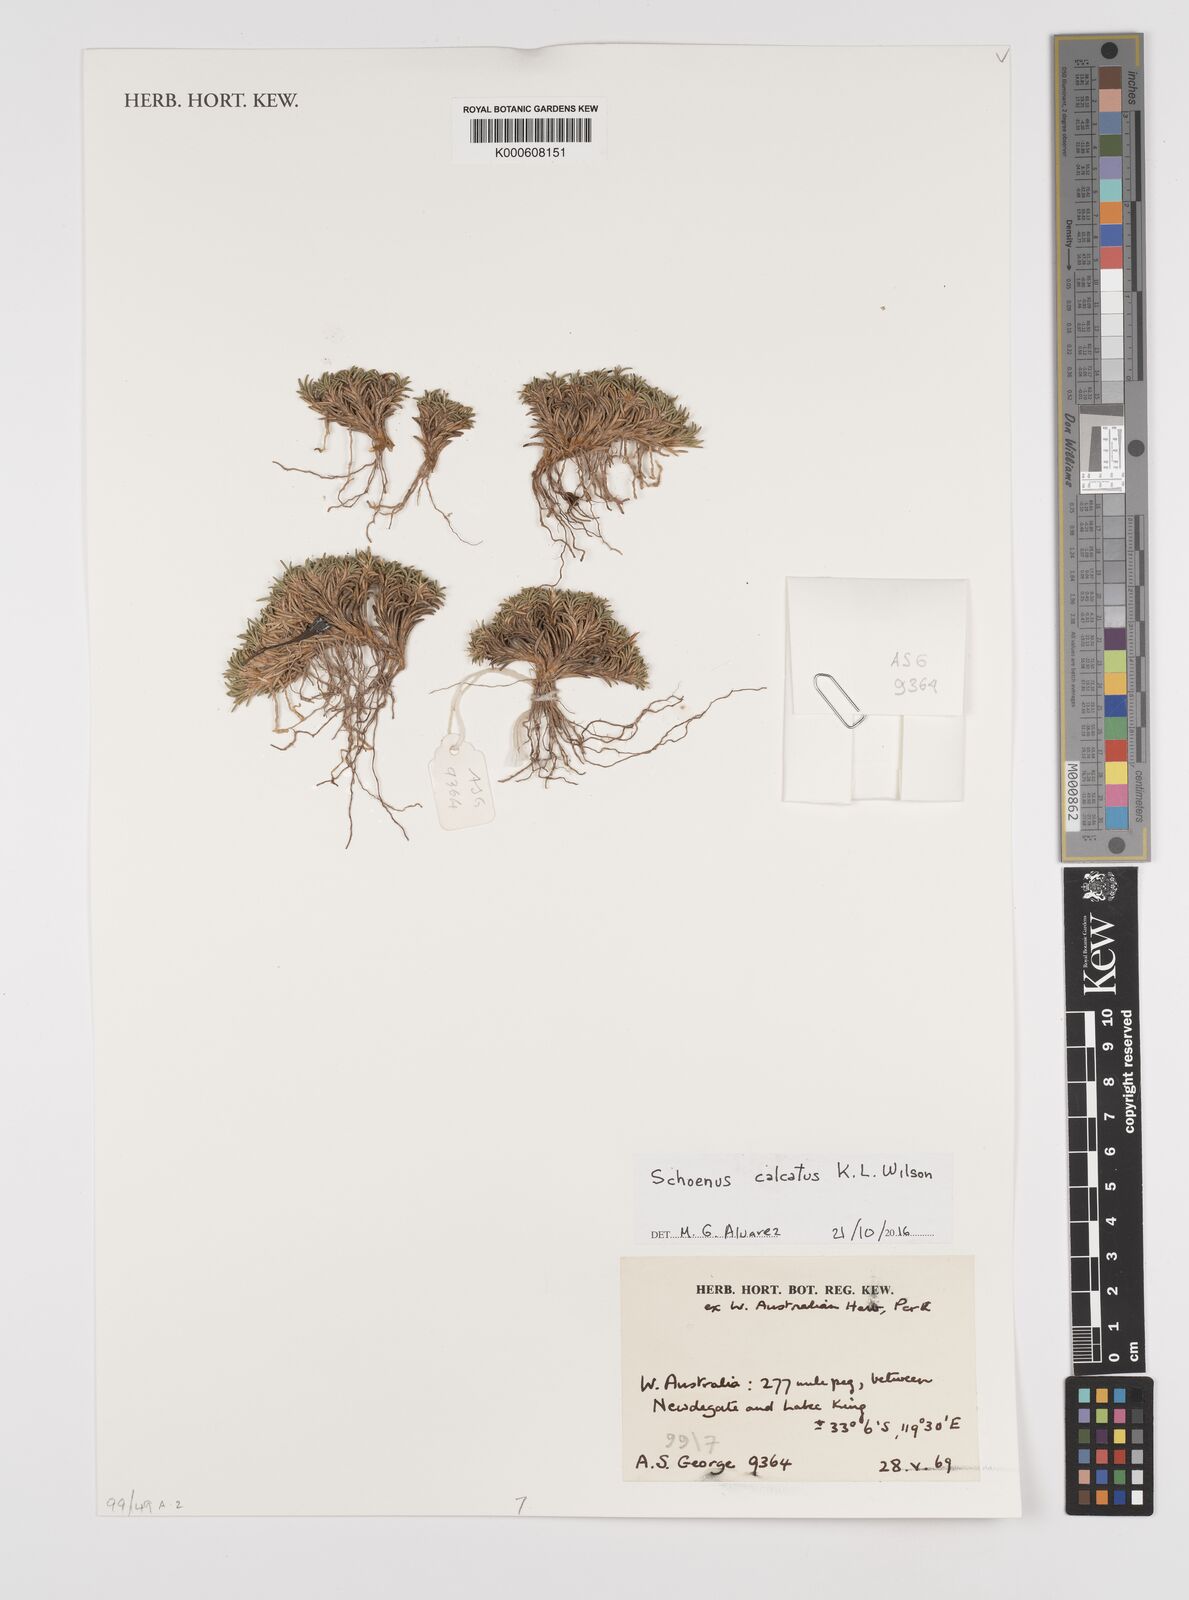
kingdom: Plantae
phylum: Tracheophyta
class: Liliopsida
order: Poales
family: Cyperaceae
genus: Schoenus
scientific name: Schoenus calcatus
